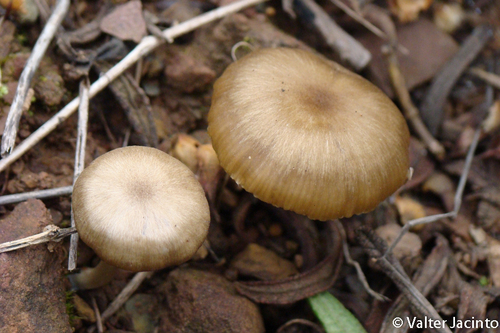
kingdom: Fungi
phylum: Basidiomycota
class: Agaricomycetes
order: Agaricales
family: Entolomataceae
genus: Entoloma
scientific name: Entoloma cistophilum
